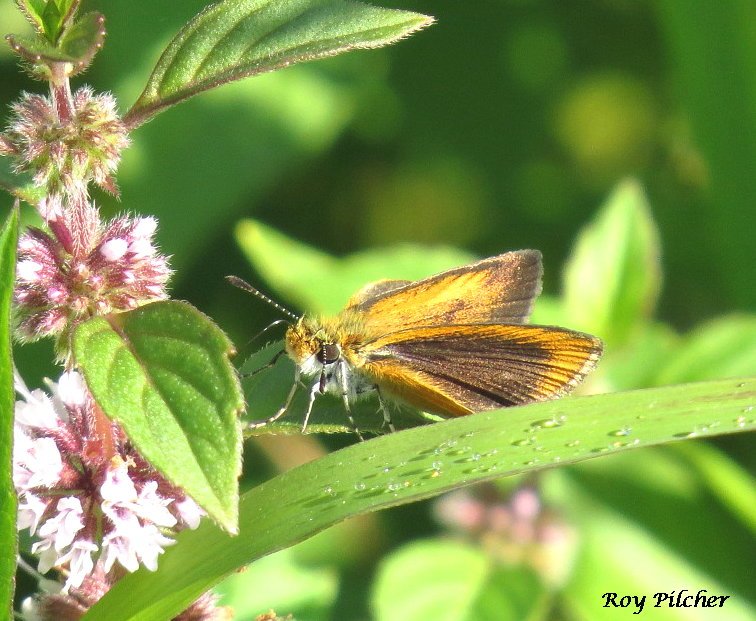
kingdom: Animalia
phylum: Arthropoda
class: Insecta
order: Lepidoptera
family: Hesperiidae
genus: Ancyloxypha
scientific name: Ancyloxypha numitor
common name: Least Skipper
